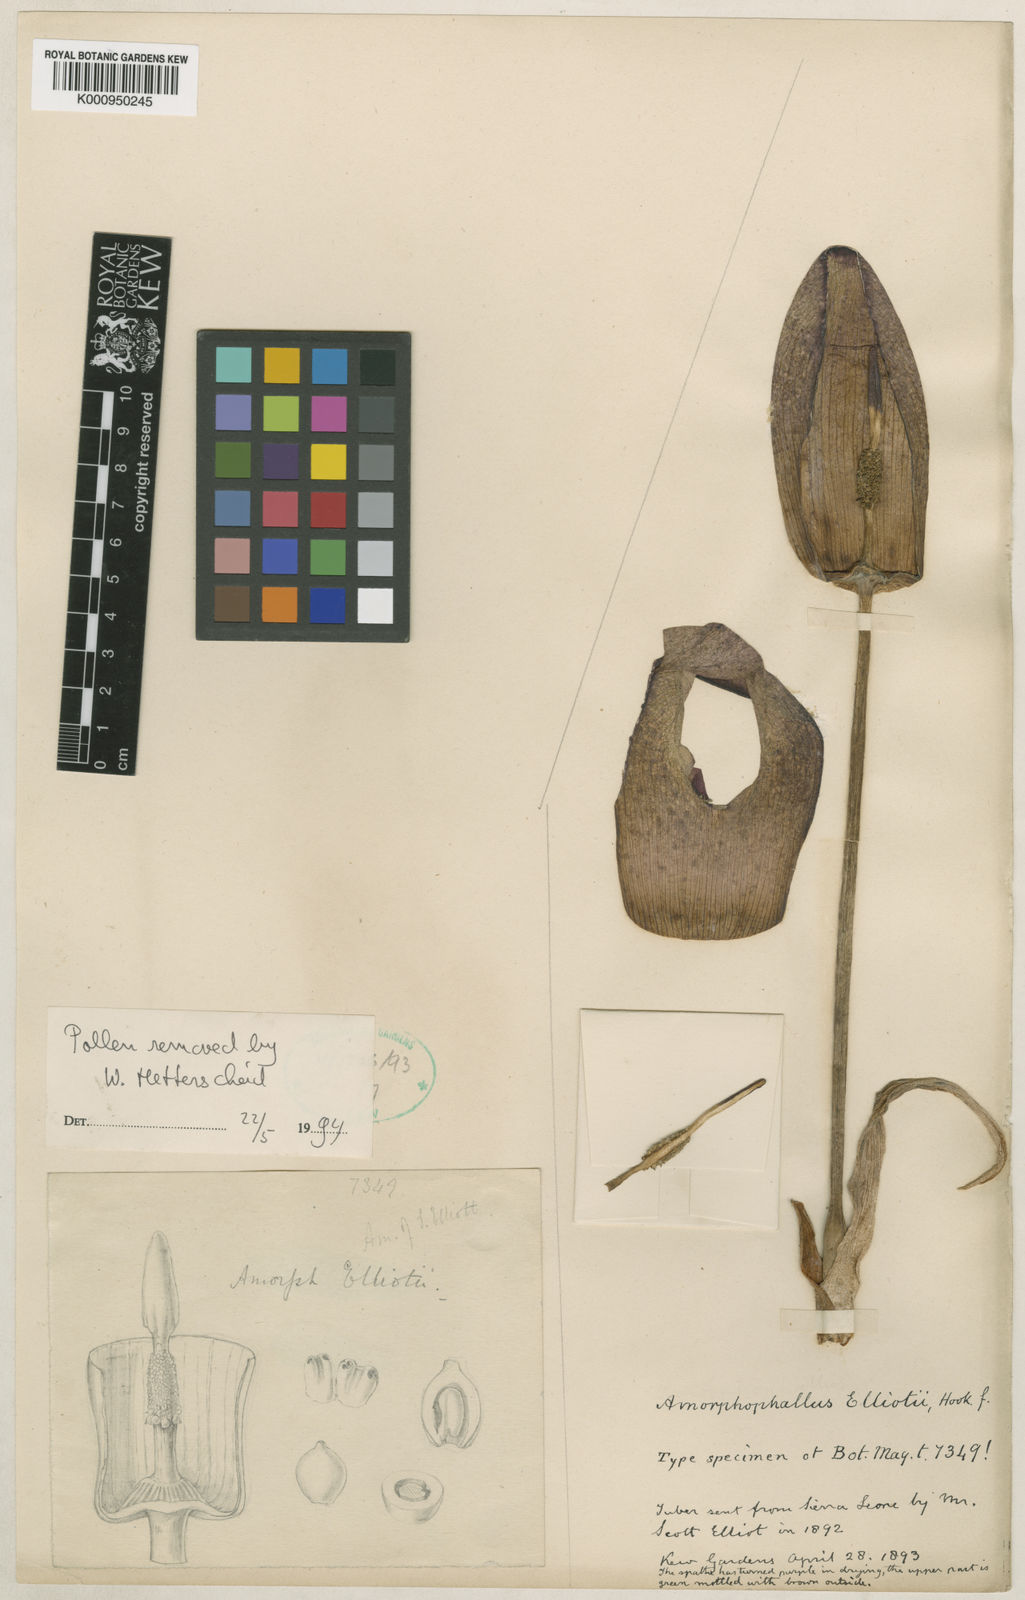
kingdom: Plantae
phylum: Tracheophyta
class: Liliopsida
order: Alismatales
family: Araceae
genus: Amorphophallus
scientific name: Amorphophallus elliottii
